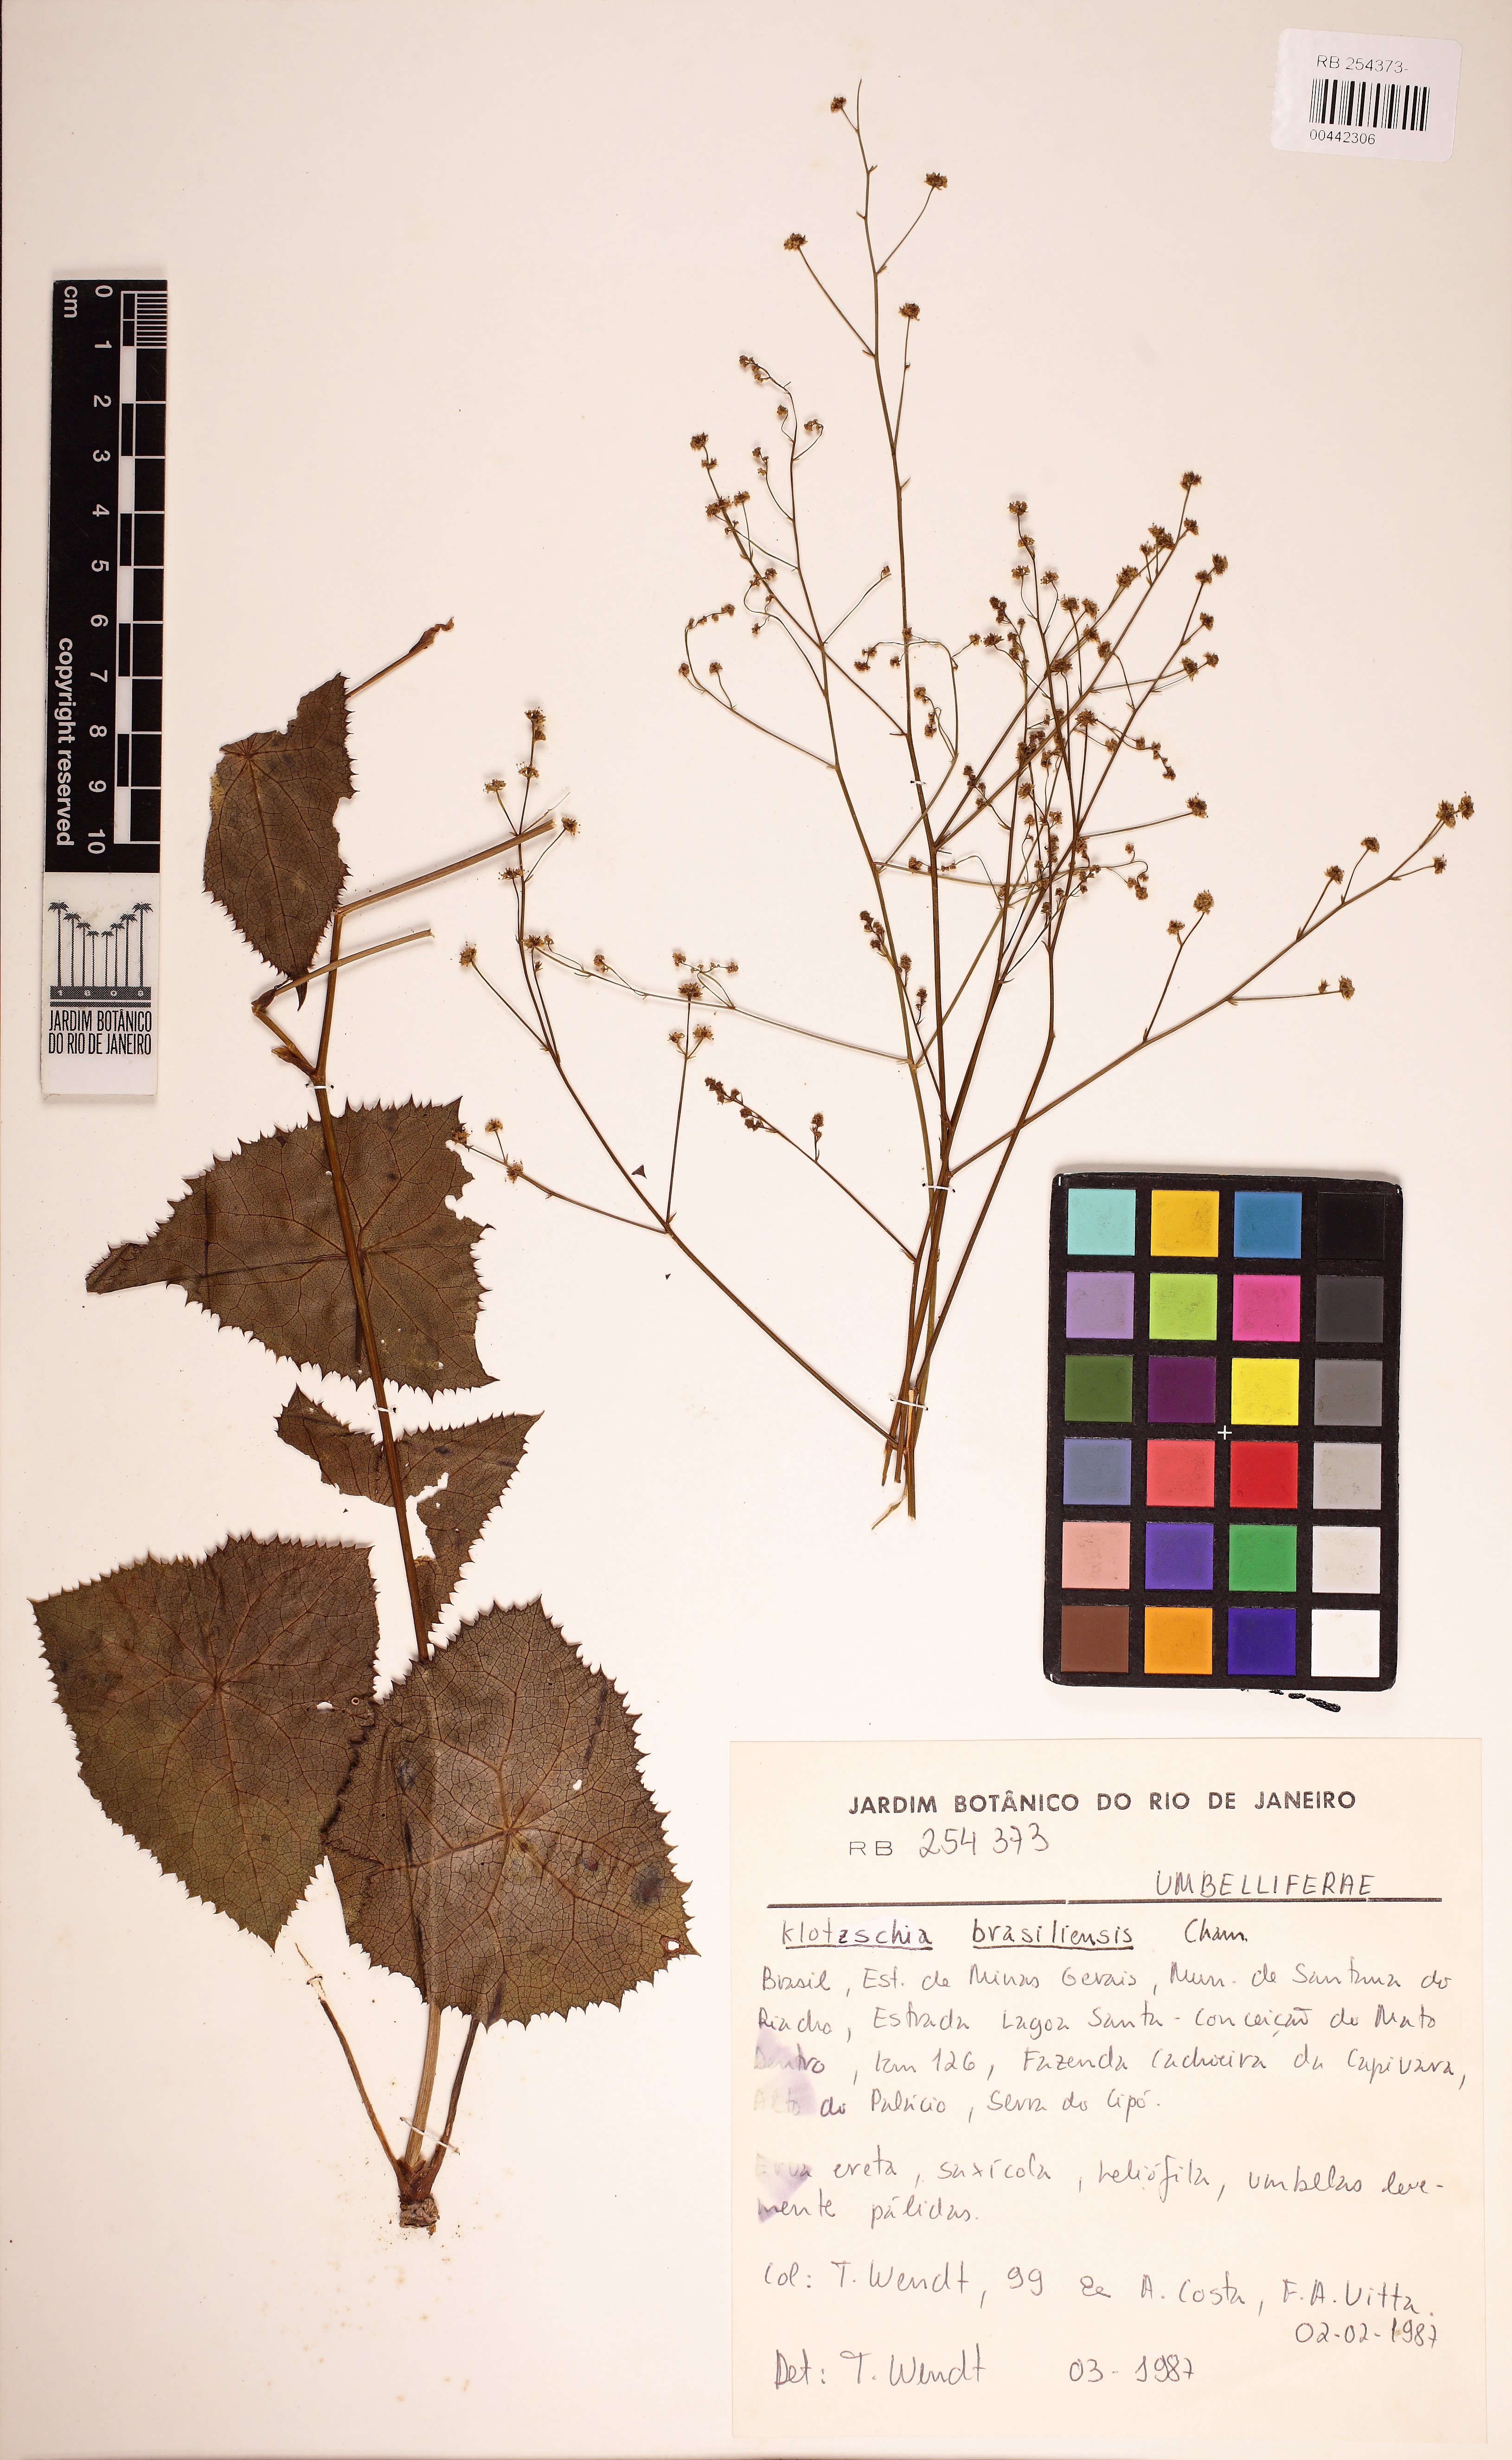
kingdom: Plantae
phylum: Tracheophyta
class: Magnoliopsida
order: Apiales
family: Apiaceae
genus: Klotzschia
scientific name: Klotzschia brasiliensis
